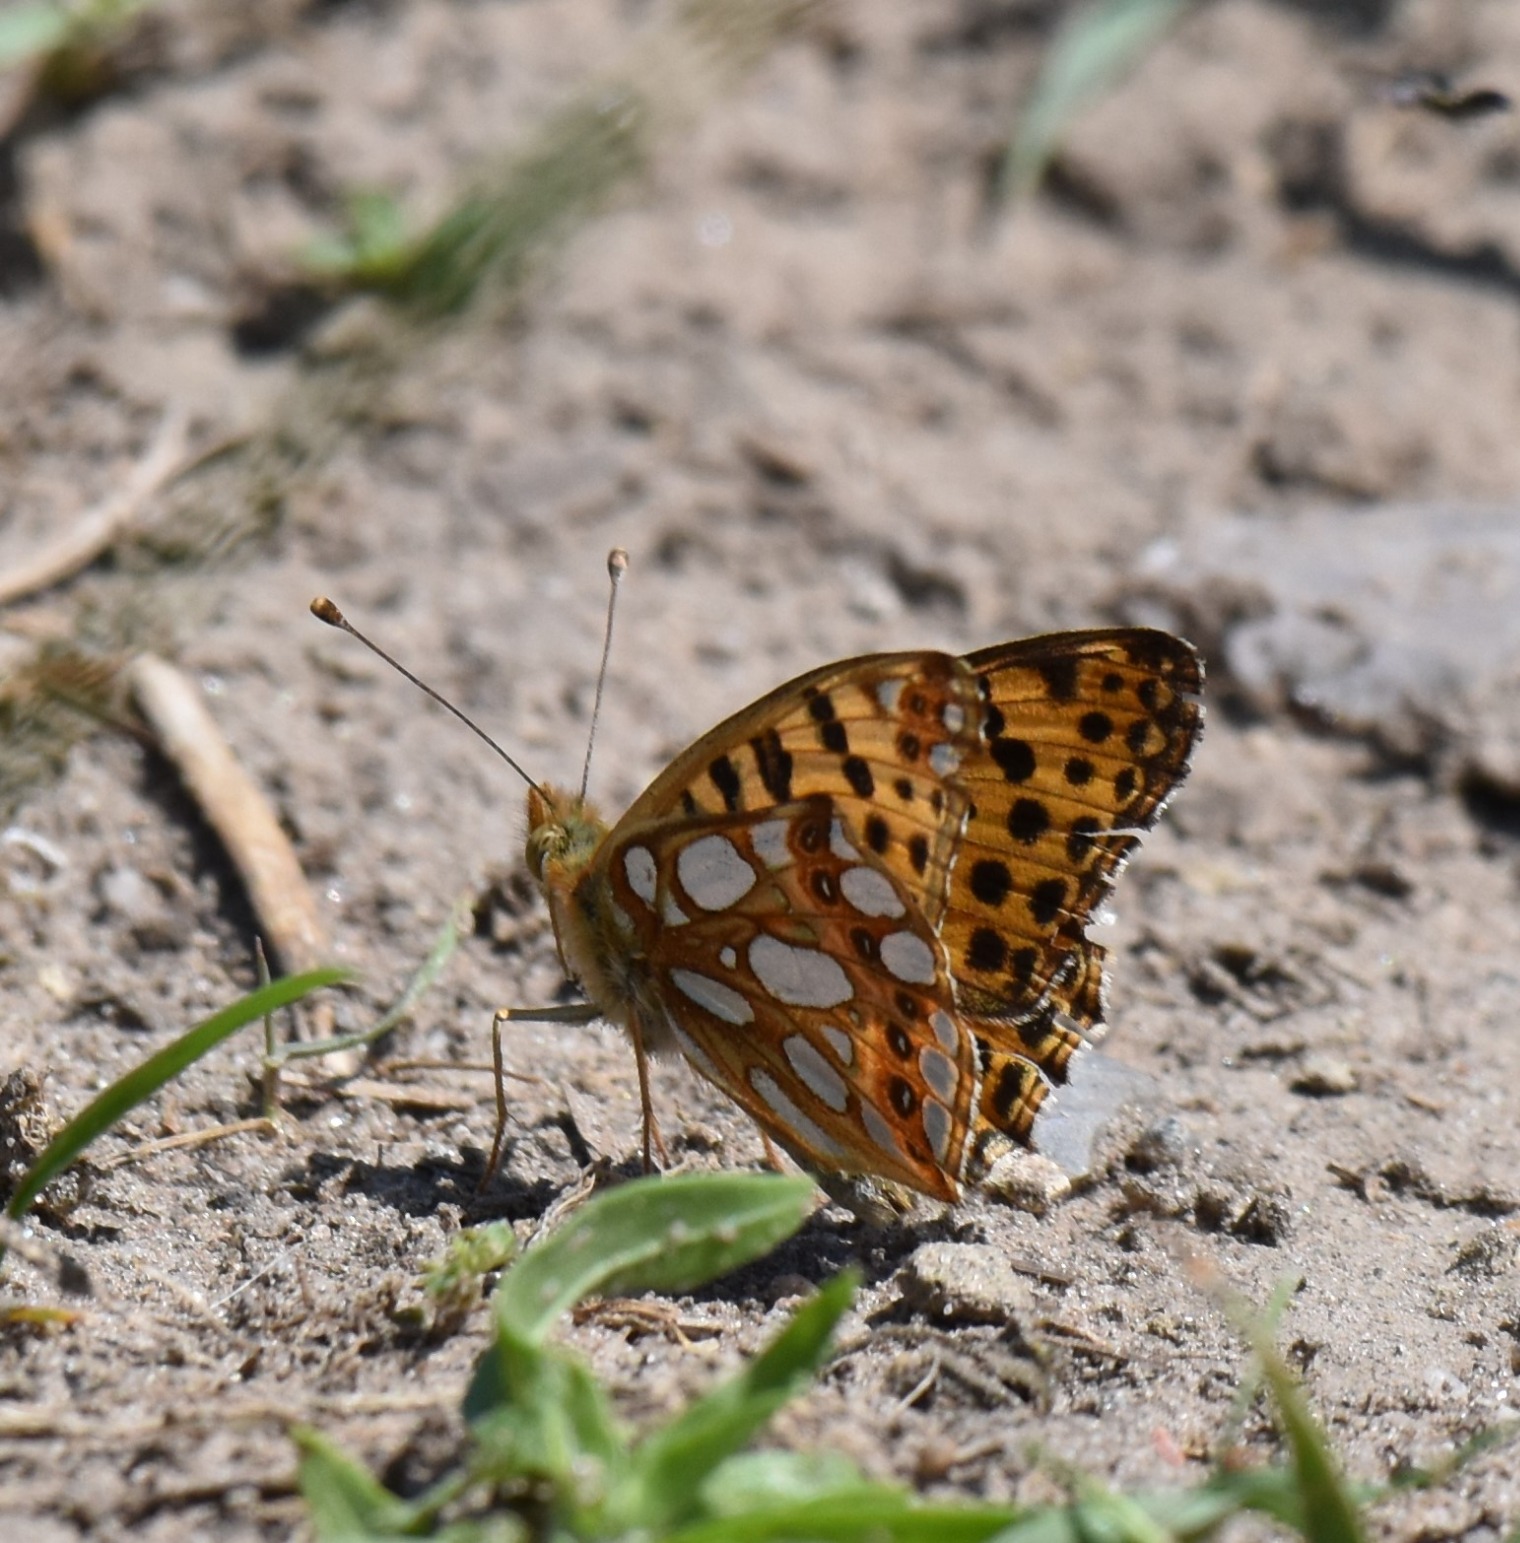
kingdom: Animalia
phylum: Arthropoda
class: Insecta
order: Lepidoptera
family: Nymphalidae
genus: Issoria
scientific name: Issoria lathonia
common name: Storplettet perlemorsommerfugl
